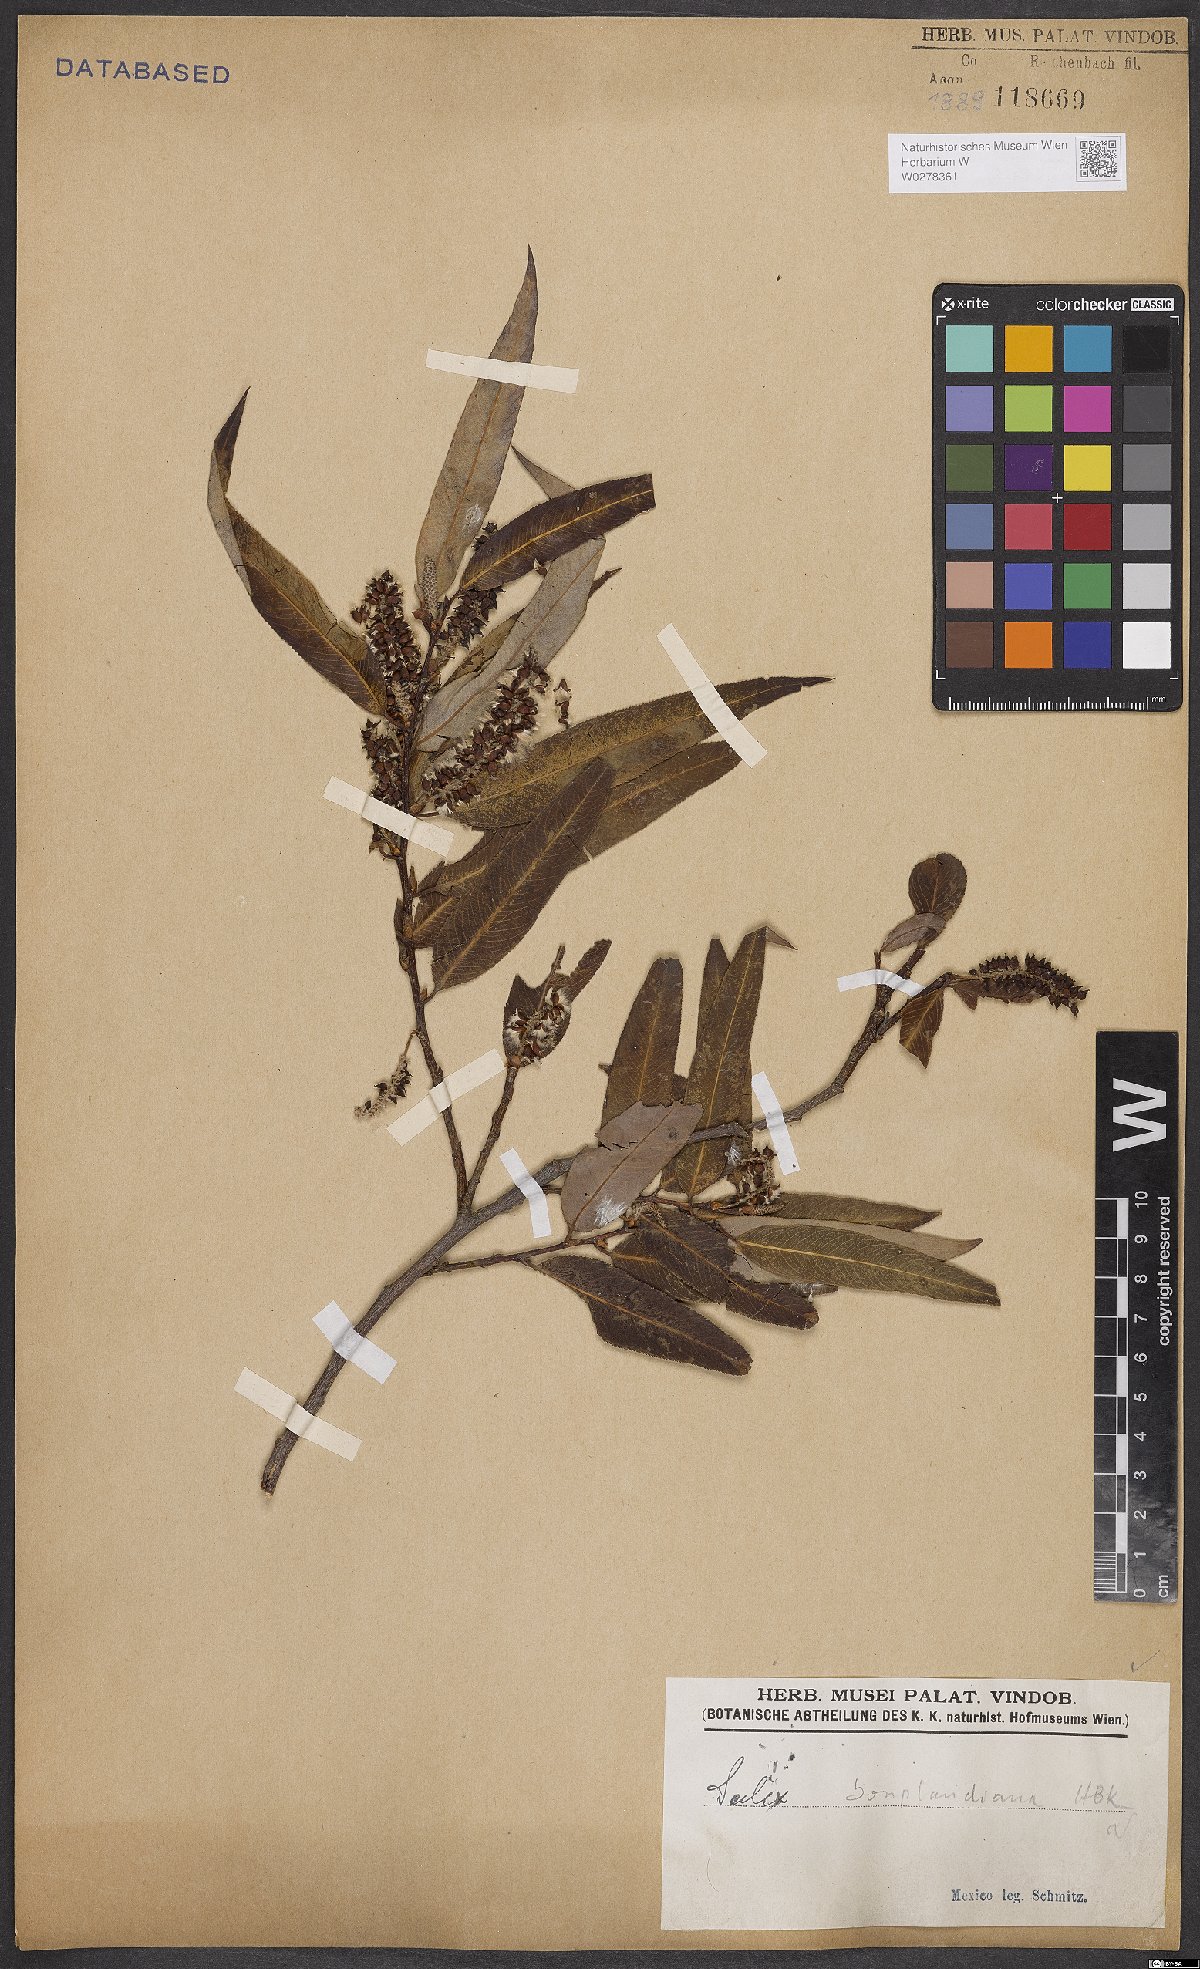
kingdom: Plantae
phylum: Tracheophyta
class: Magnoliopsida
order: Malpighiales
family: Salicaceae
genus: Salix
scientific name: Salix bonplandiana
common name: Bonpland’s willow
